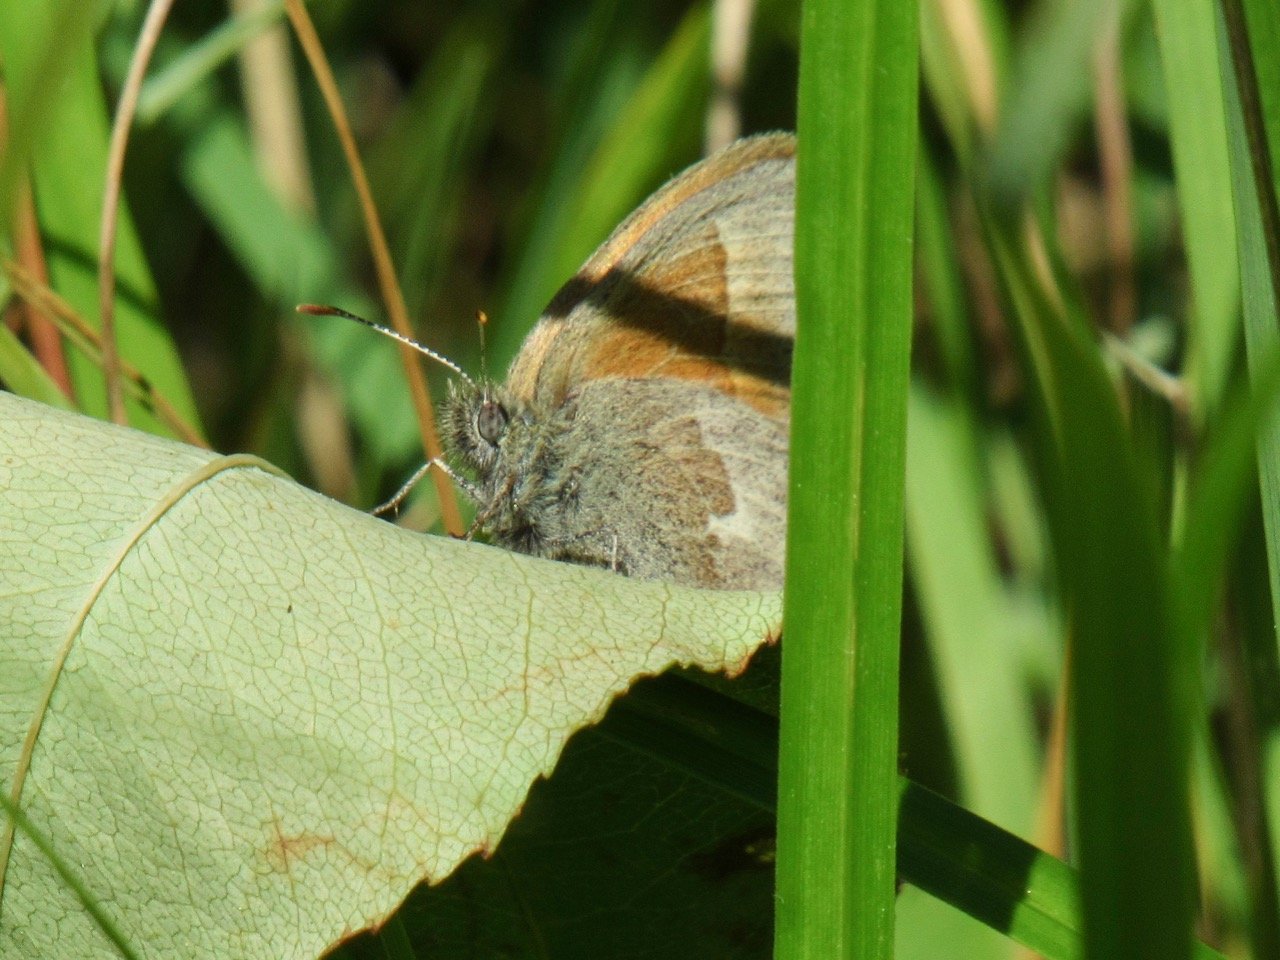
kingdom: Animalia
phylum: Arthropoda
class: Insecta
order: Lepidoptera
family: Nymphalidae
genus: Coenonympha
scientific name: Coenonympha tullia
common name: Large Heath
